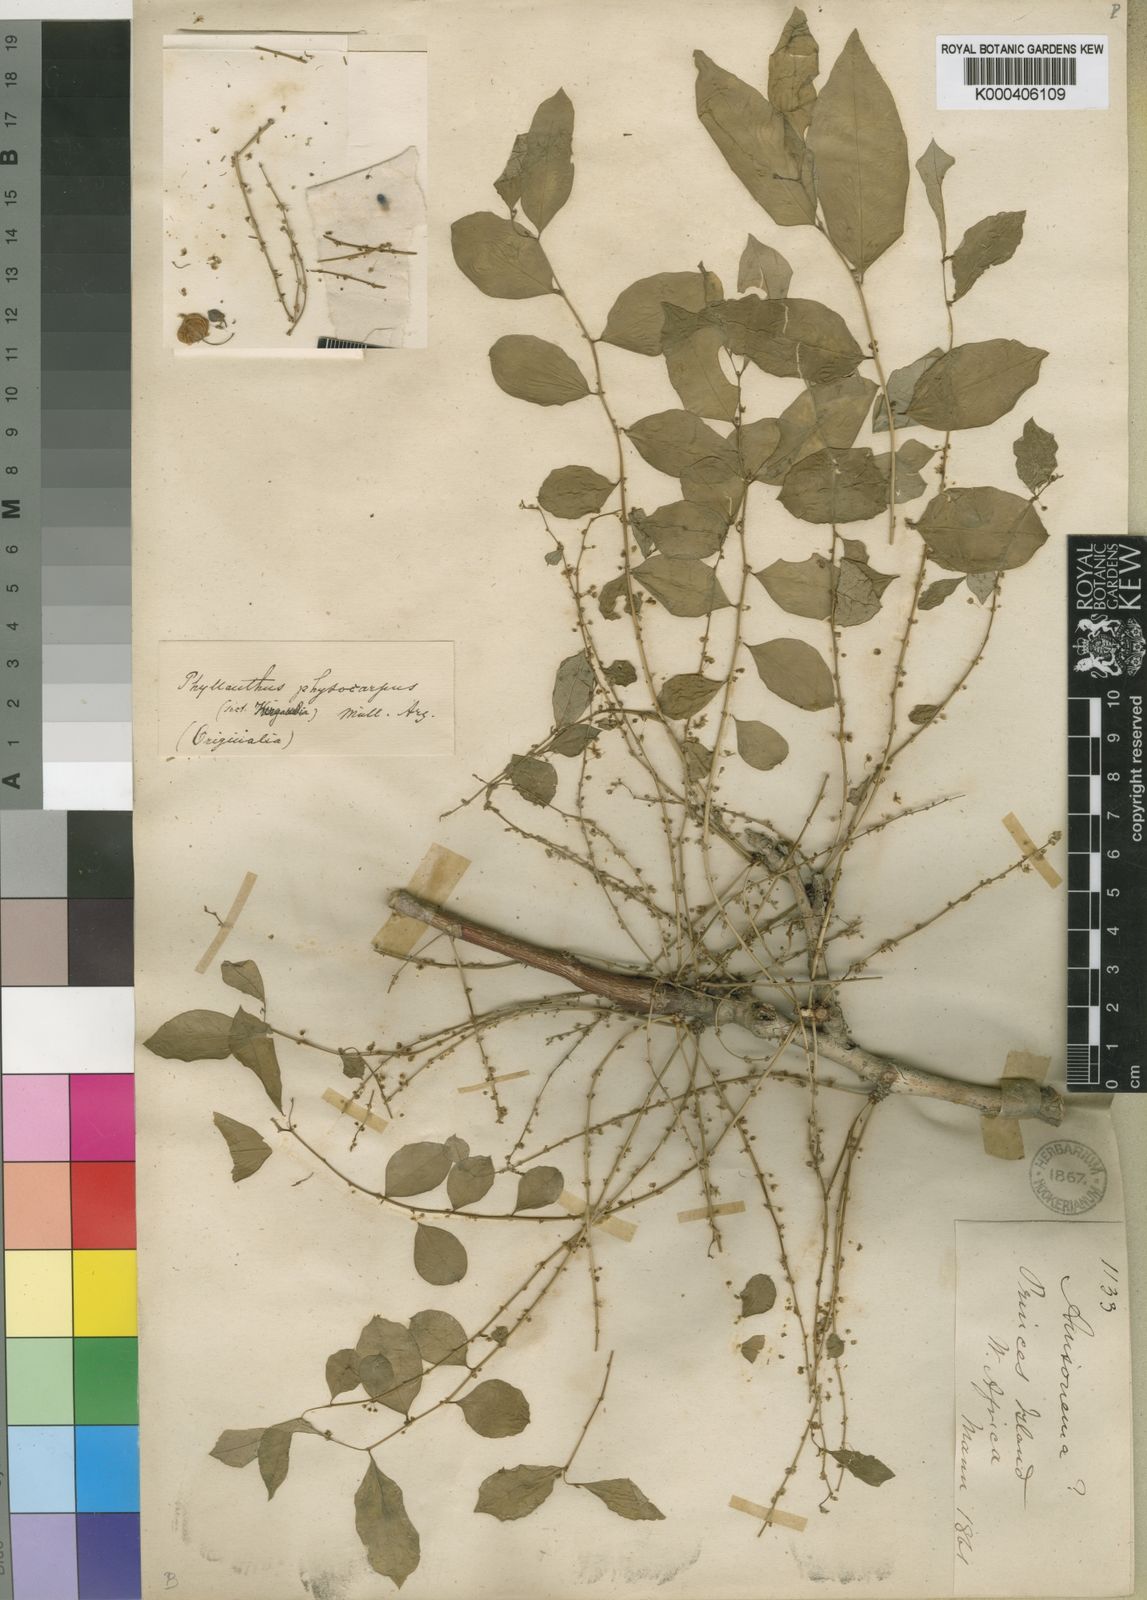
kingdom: Plantae
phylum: Tracheophyta
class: Magnoliopsida
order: Malpighiales
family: Phyllanthaceae
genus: Phyllanthus
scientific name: Phyllanthus
